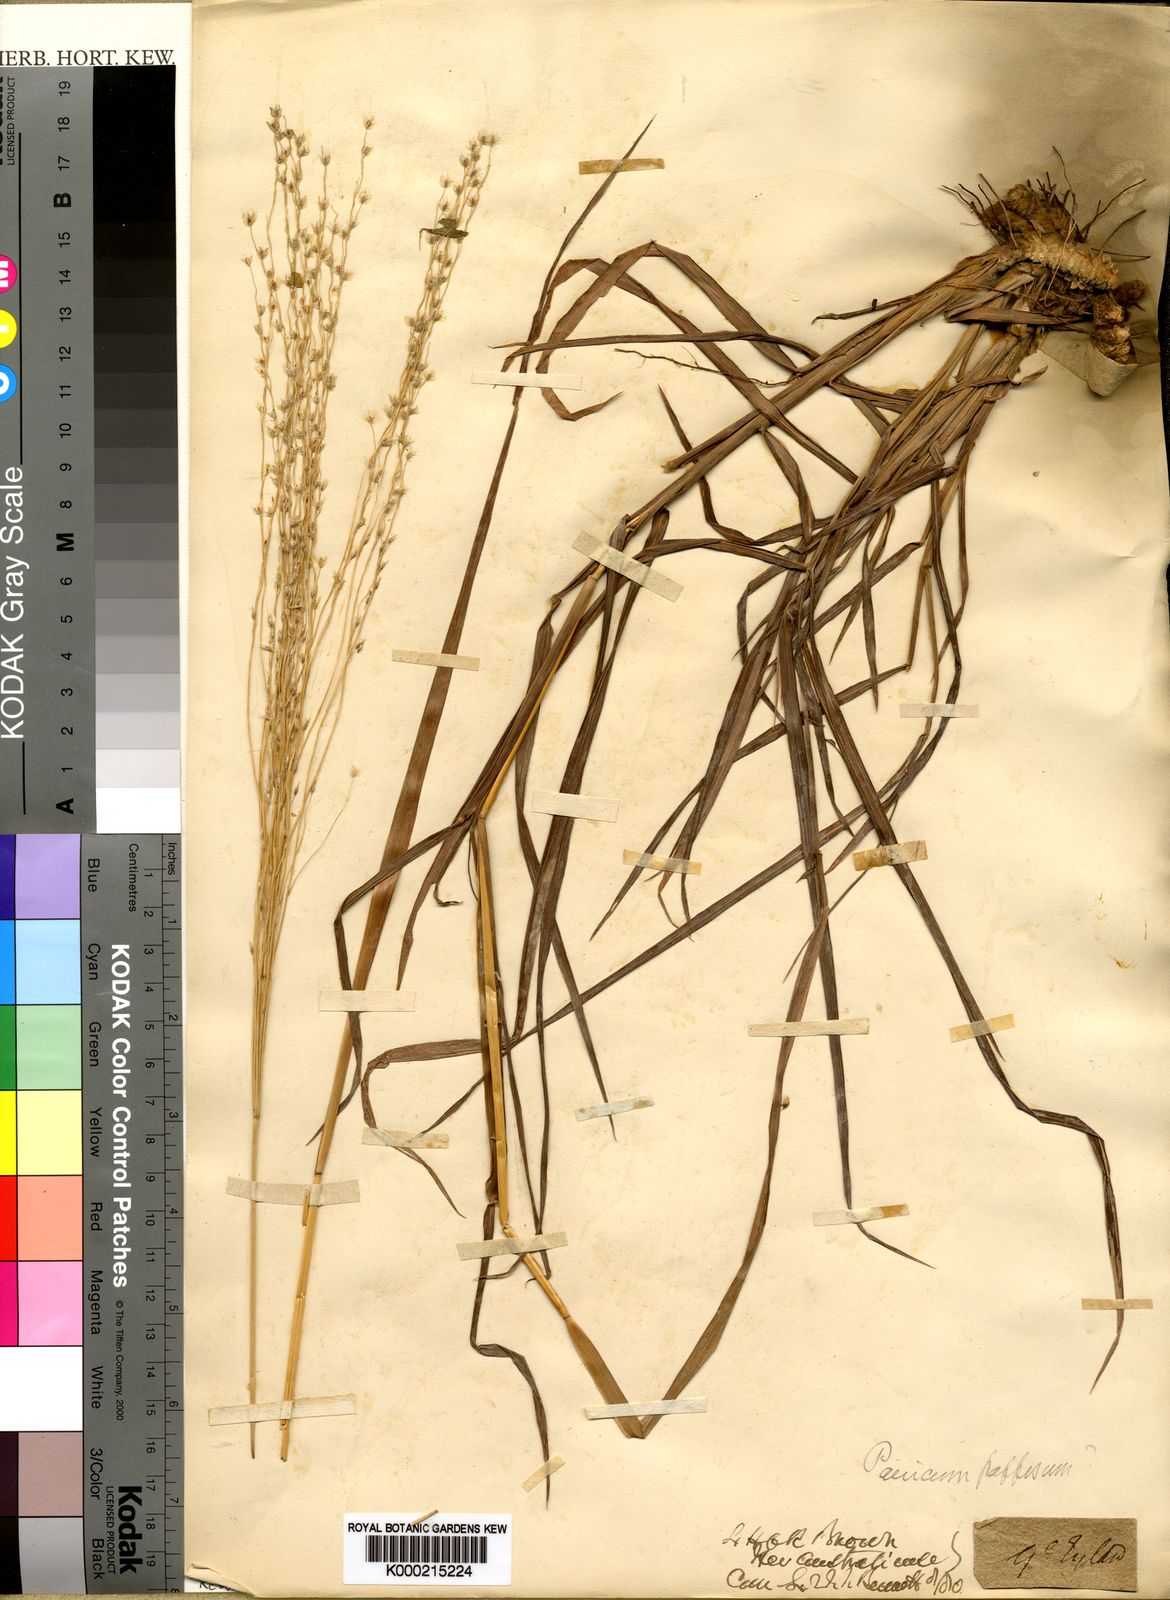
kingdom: Plantae
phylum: Tracheophyta
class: Liliopsida
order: Poales
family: Poaceae
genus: Digitaria
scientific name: Digitaria papposa
